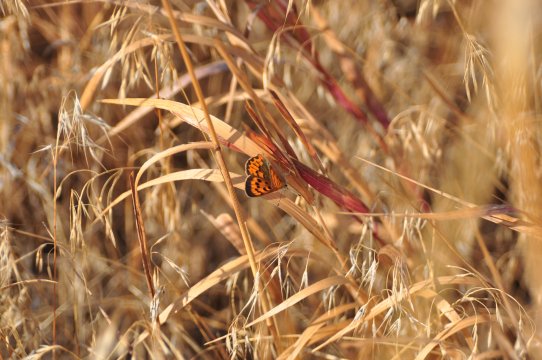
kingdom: Animalia
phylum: Arthropoda
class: Insecta
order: Lepidoptera
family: Sesiidae
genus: Sesia
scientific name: Sesia Lycaena helloides
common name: Purplish Copper
